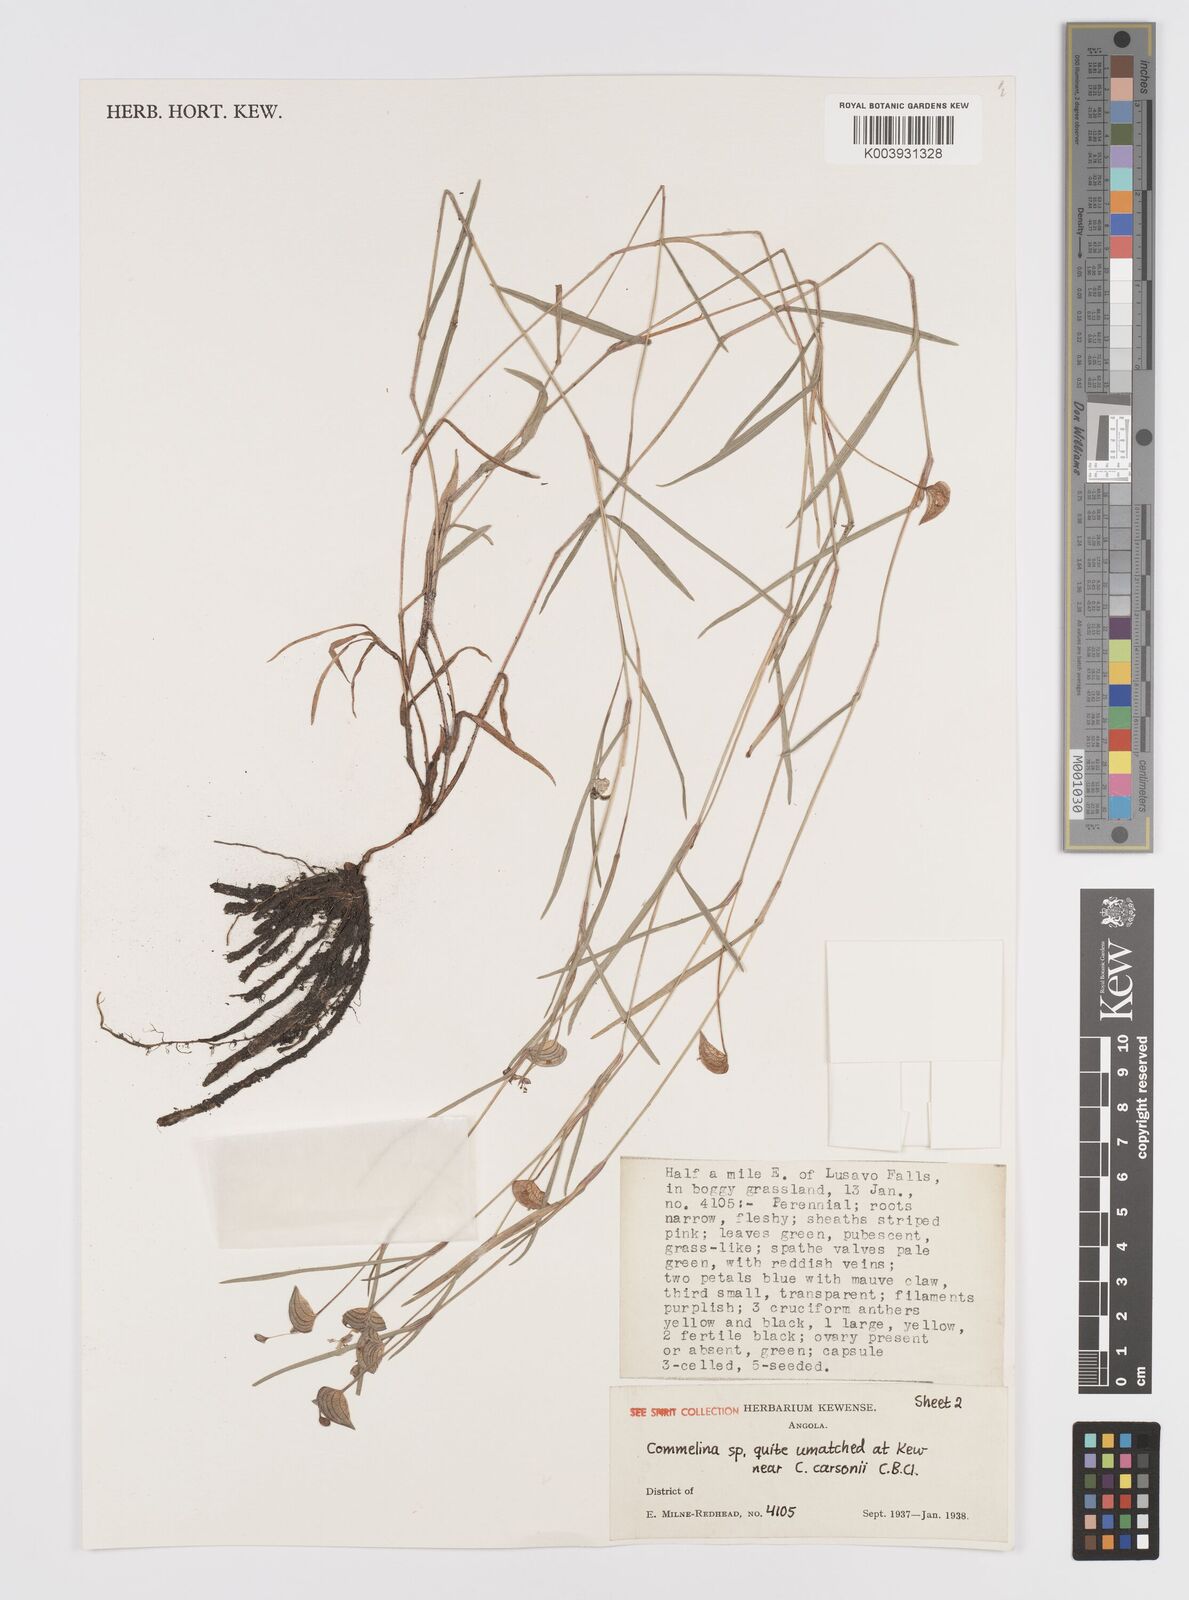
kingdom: Plantae
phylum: Tracheophyta
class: Liliopsida
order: Commelinales
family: Commelinaceae
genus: Commelina
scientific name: Commelina
